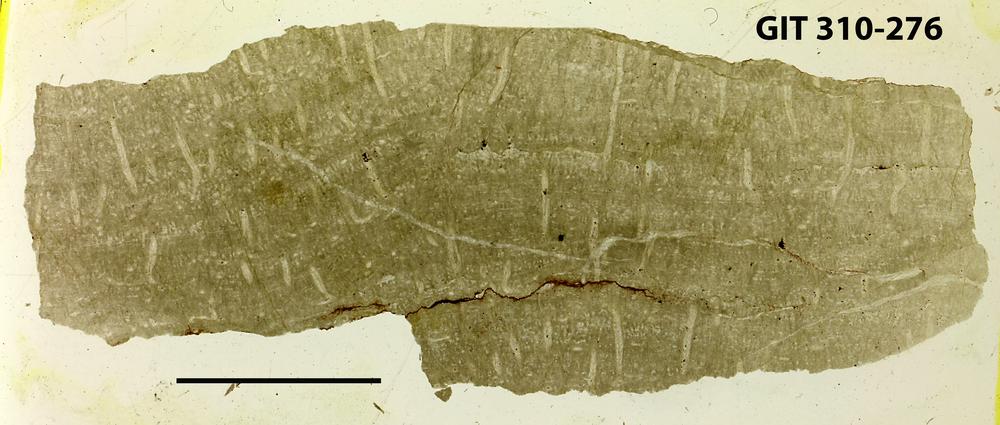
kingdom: Animalia
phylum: Porifera
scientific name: Porifera
